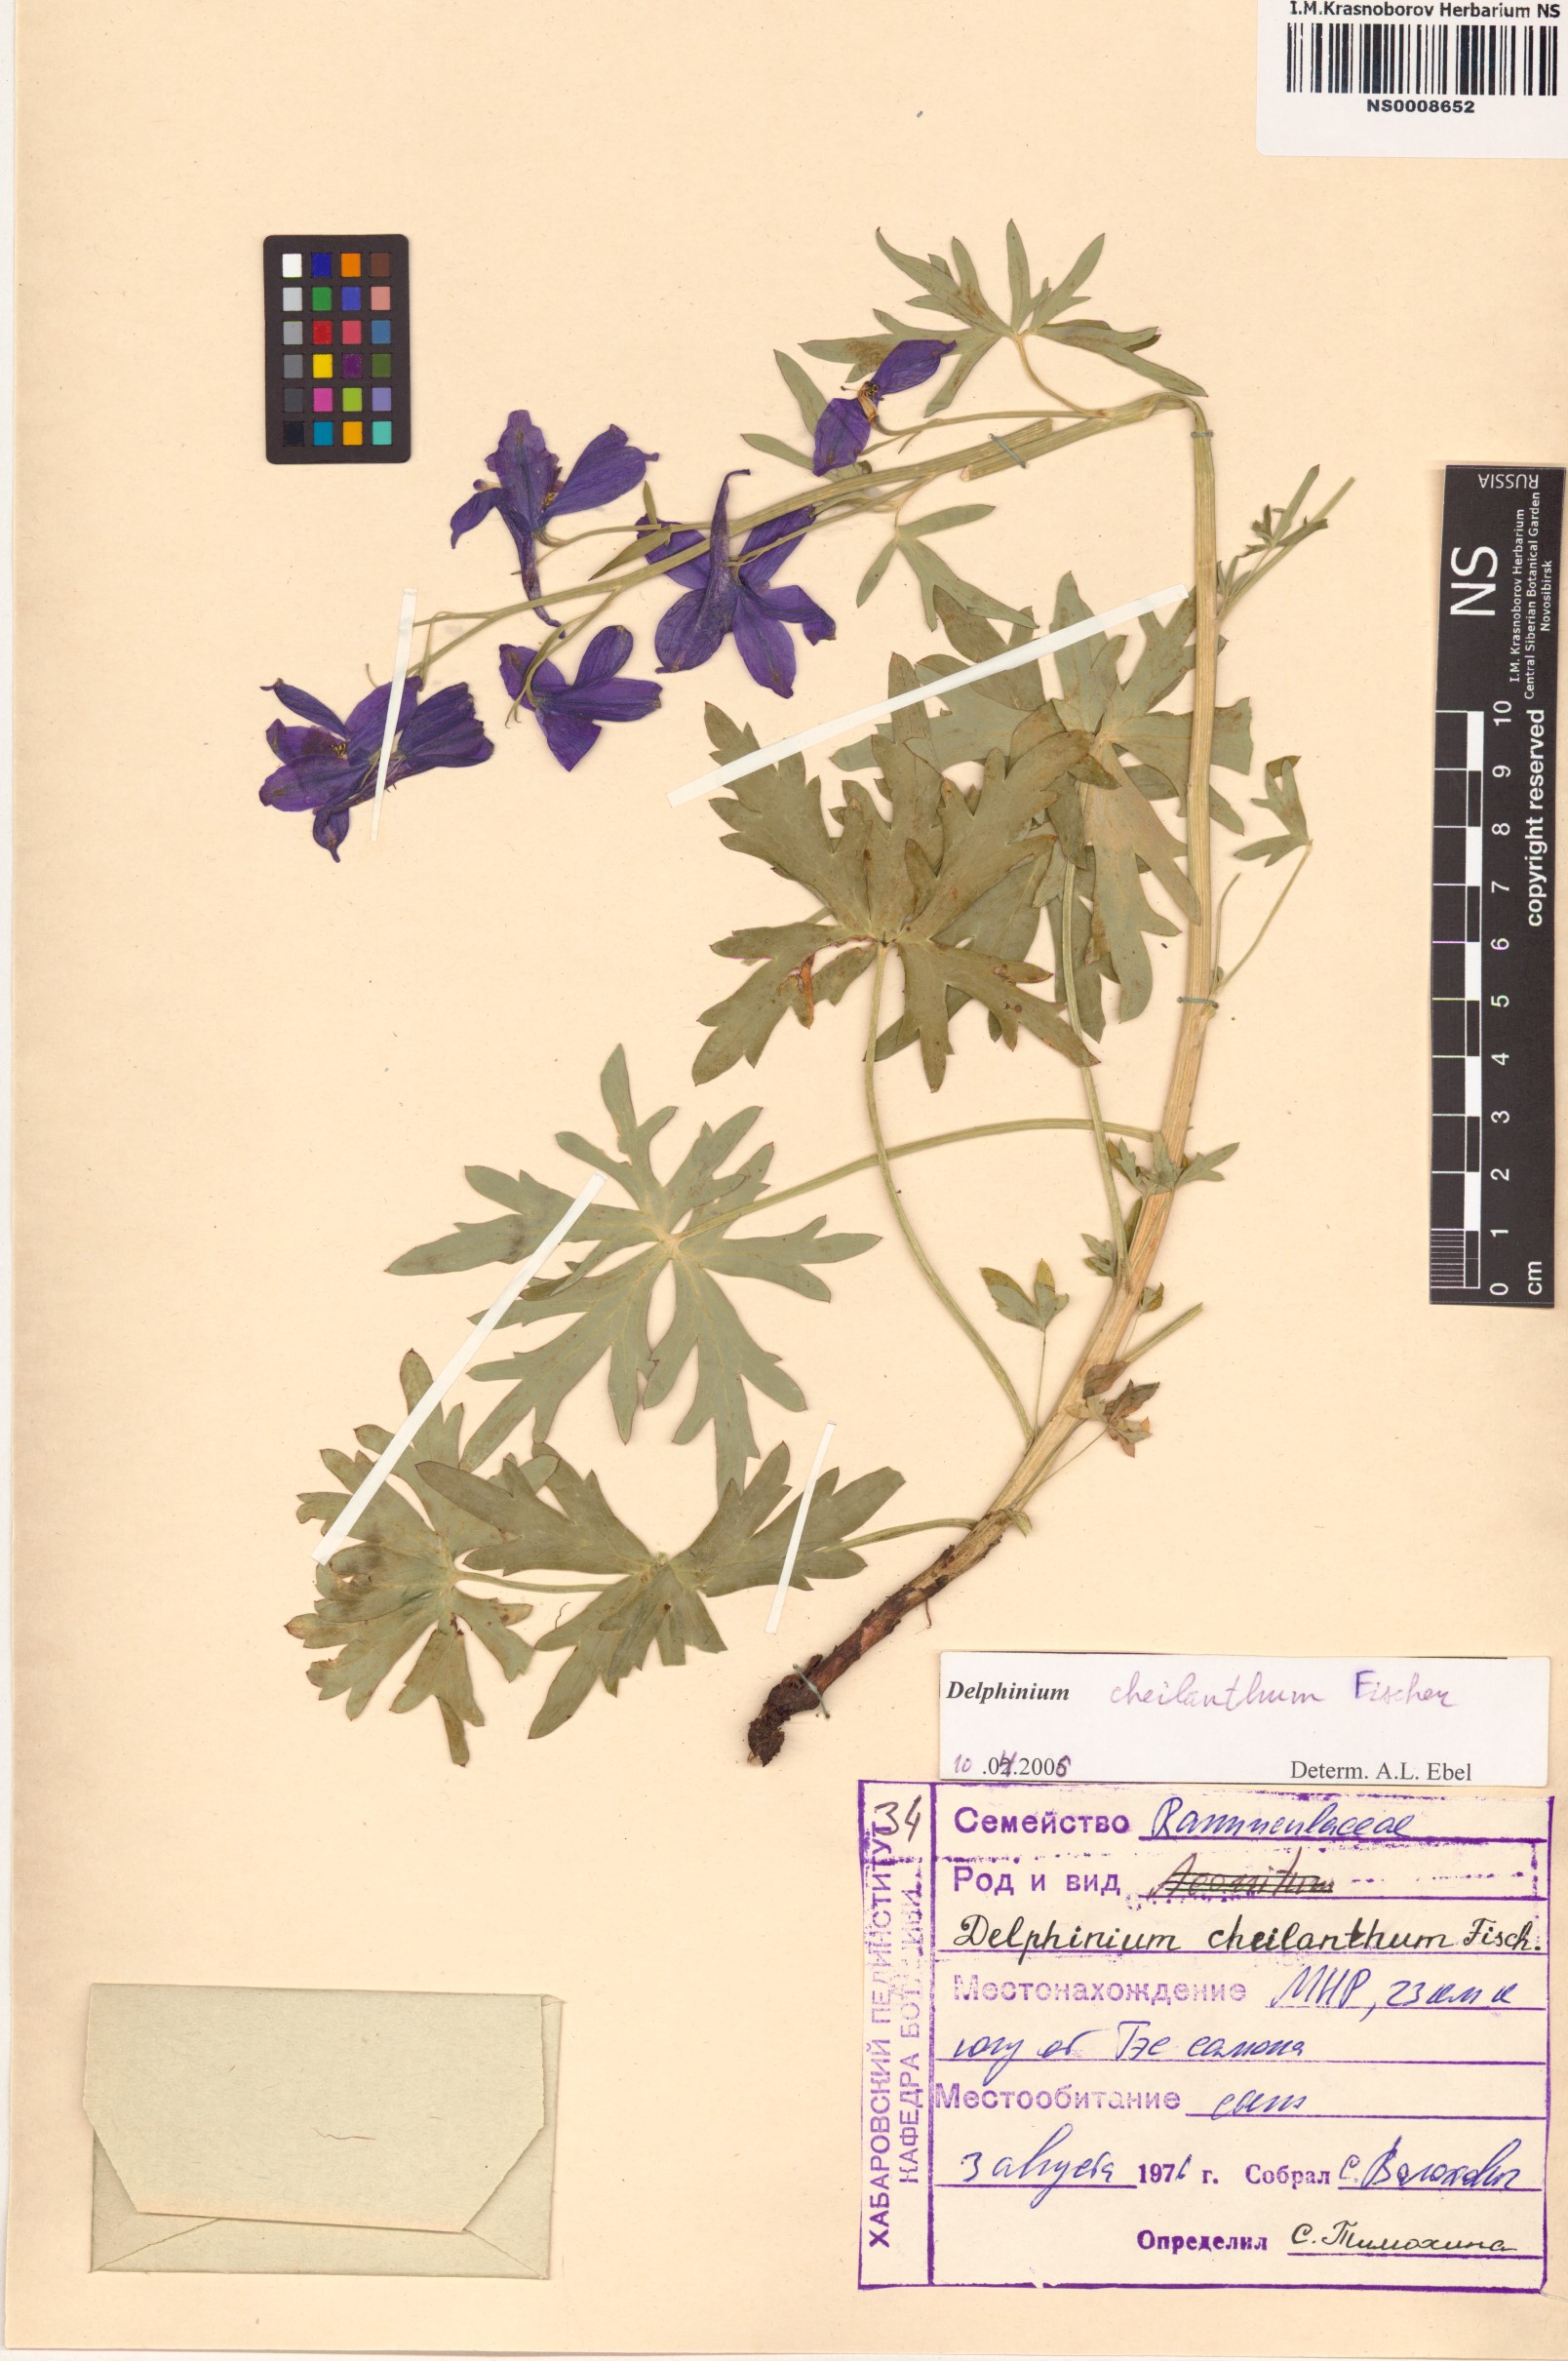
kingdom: Plantae
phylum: Tracheophyta
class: Magnoliopsida
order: Ranunculales
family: Ranunculaceae
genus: Delphinium
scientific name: Delphinium cheilanthum
